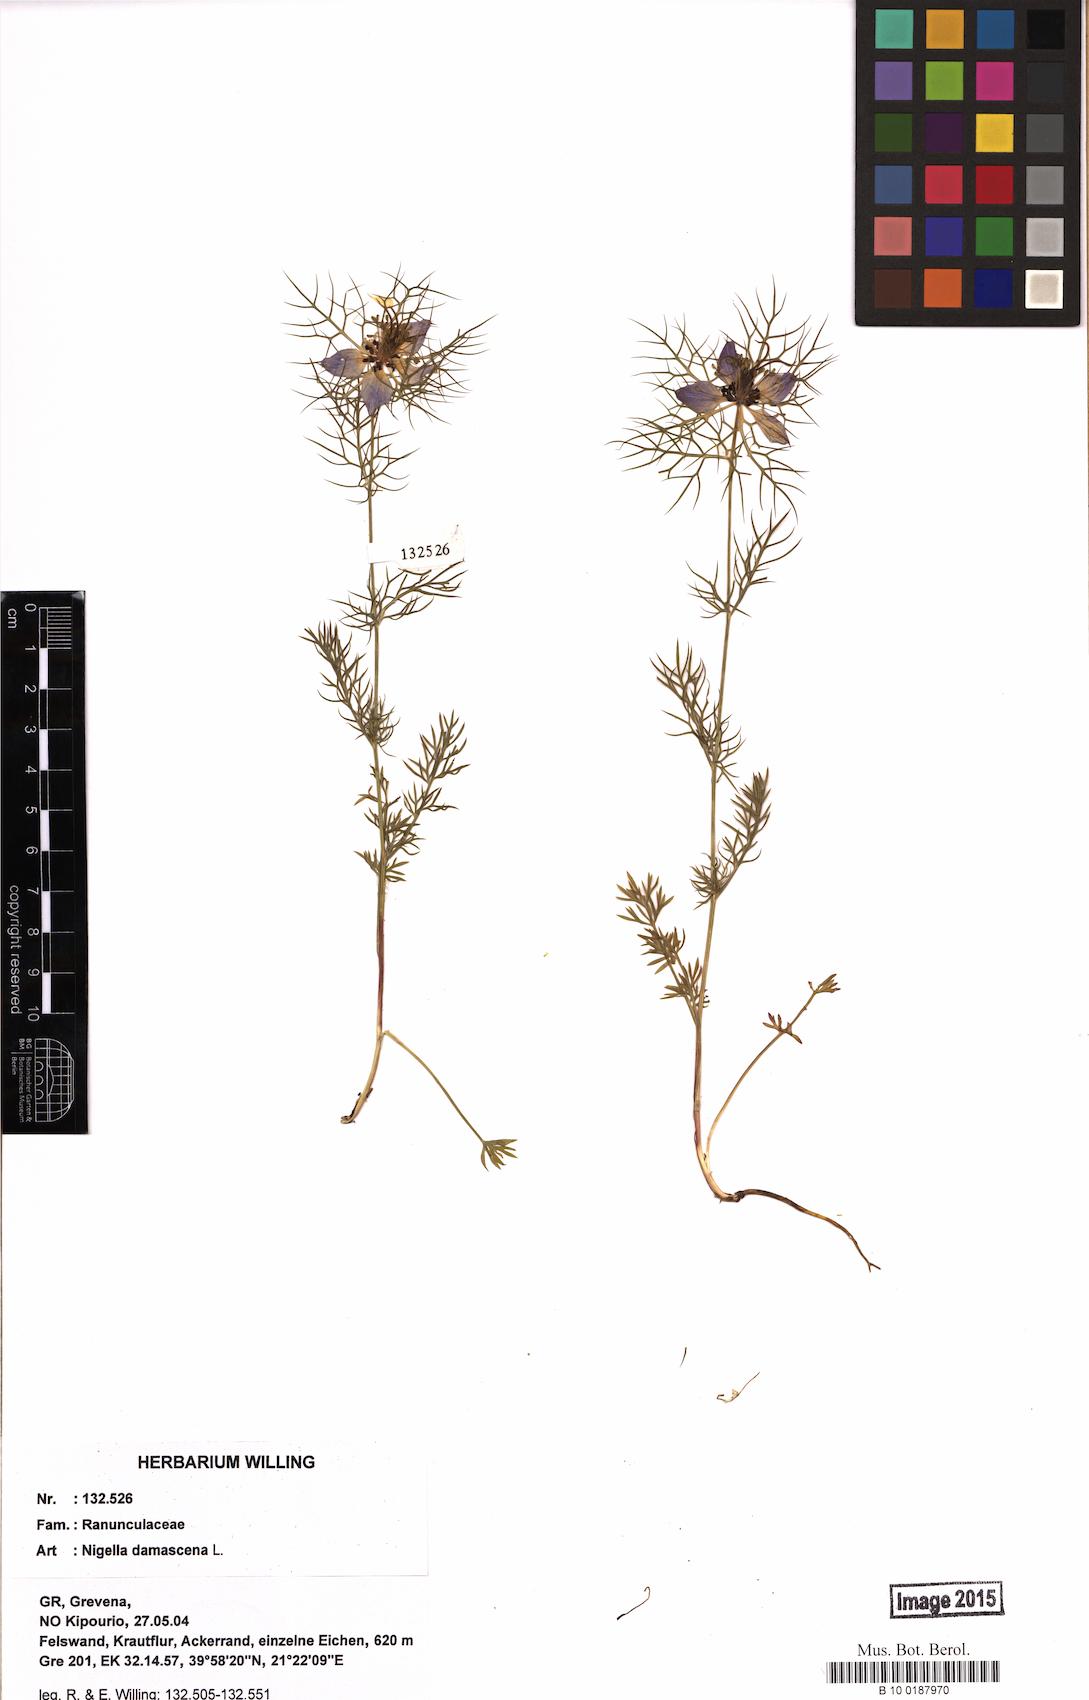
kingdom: Plantae
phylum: Tracheophyta
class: Magnoliopsida
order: Ranunculales
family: Ranunculaceae
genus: Nigella
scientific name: Nigella damascena
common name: Love-in-a-mist
